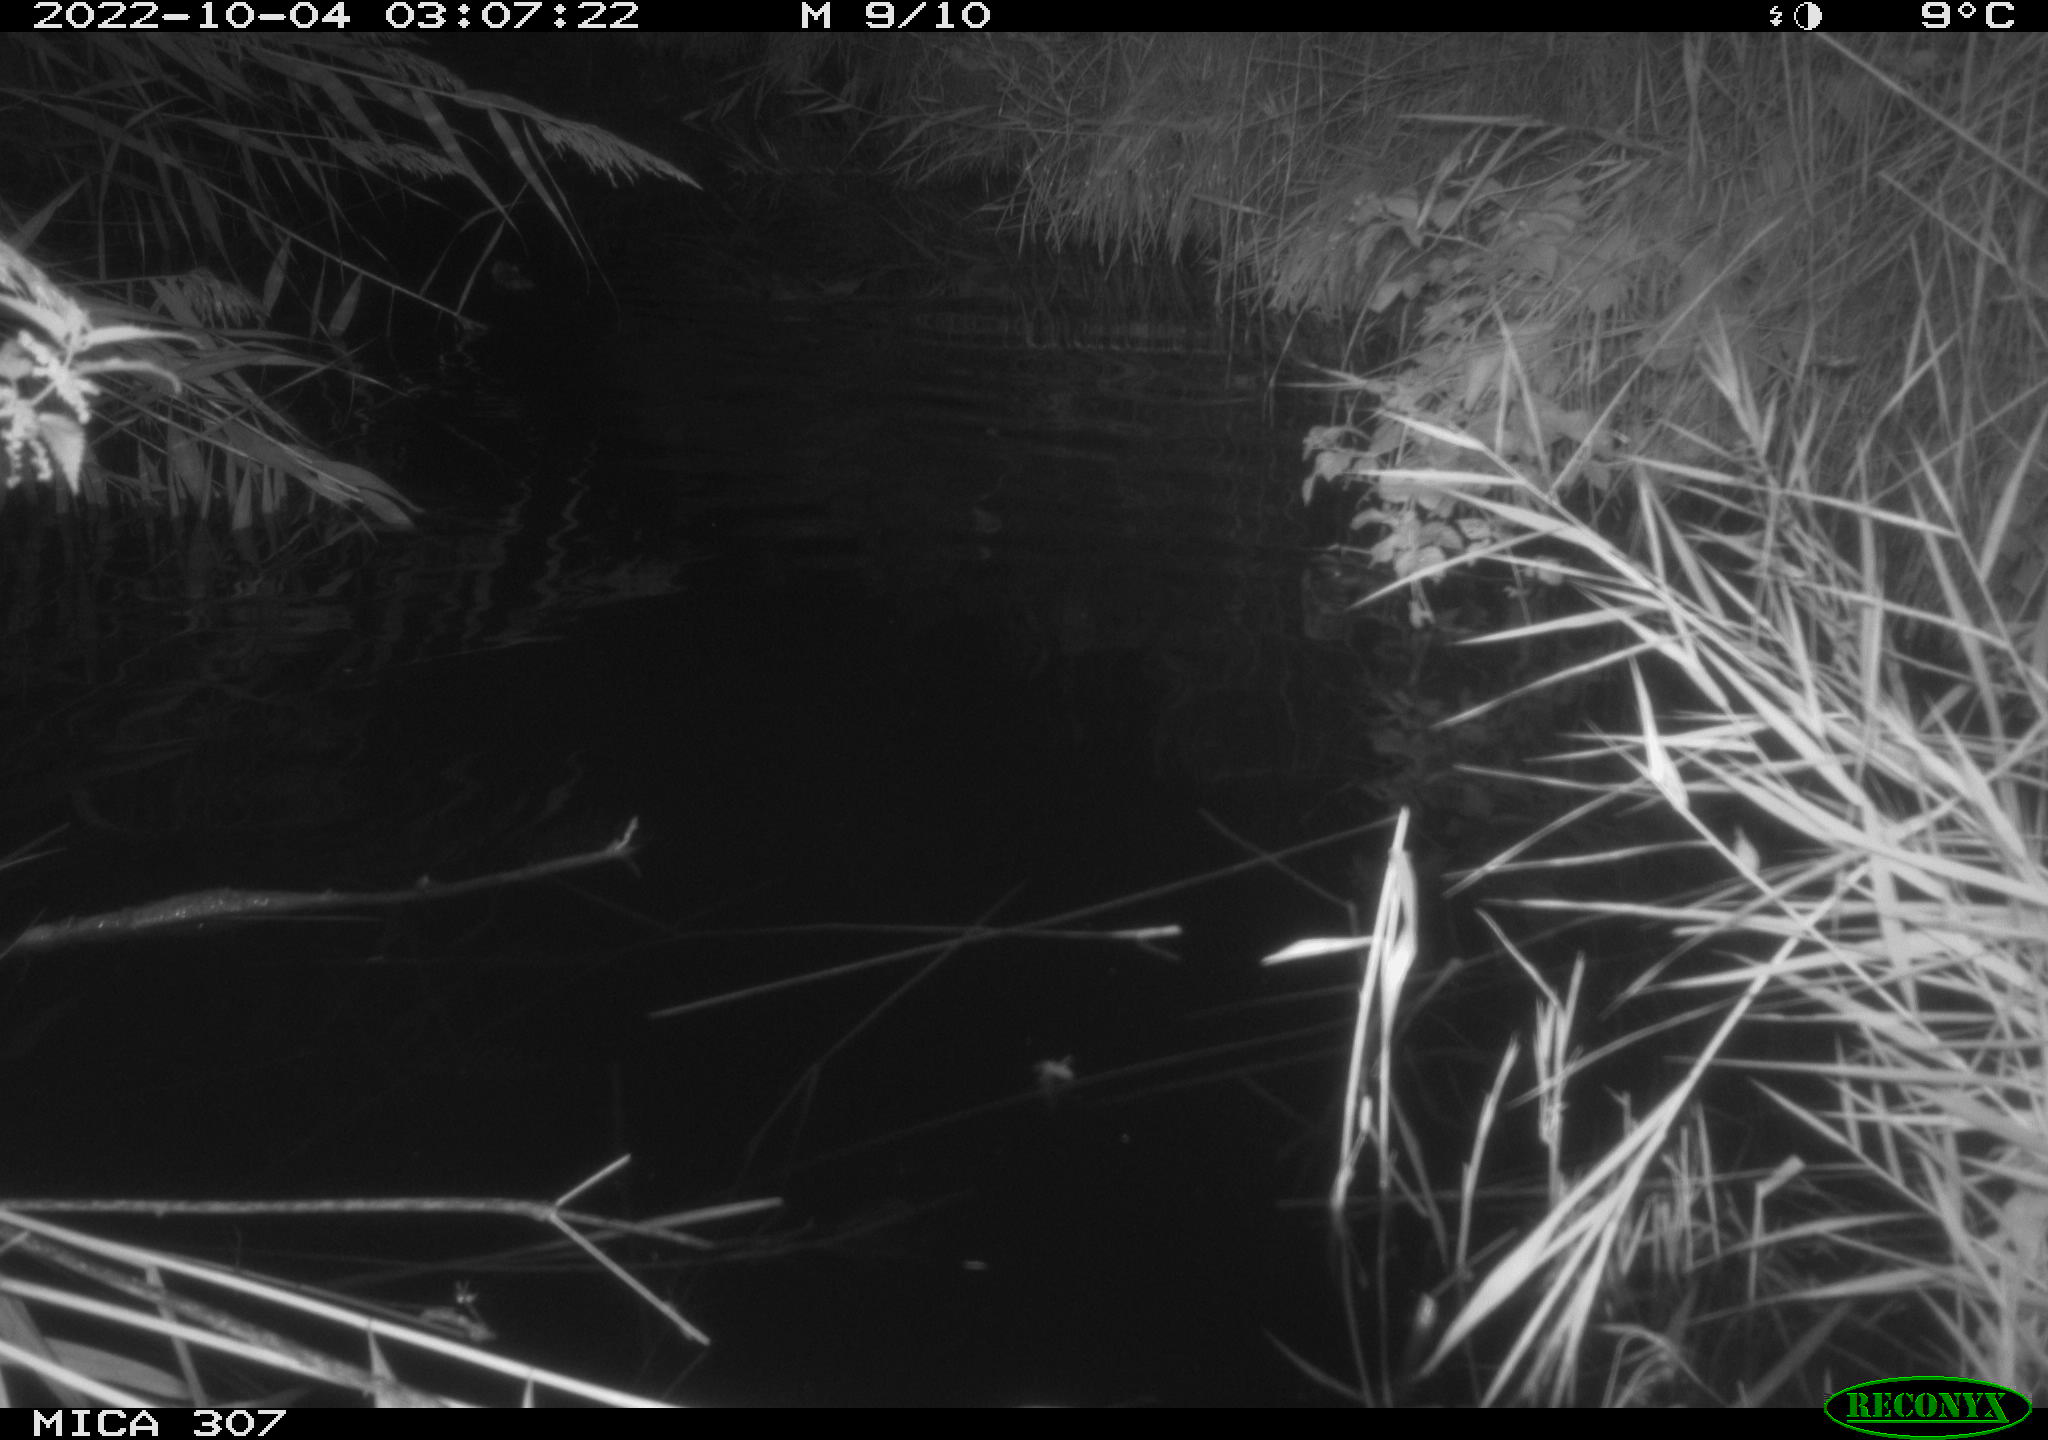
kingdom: Animalia
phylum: Chordata
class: Mammalia
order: Rodentia
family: Muridae
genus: Rattus
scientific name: Rattus norvegicus
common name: Brown rat
